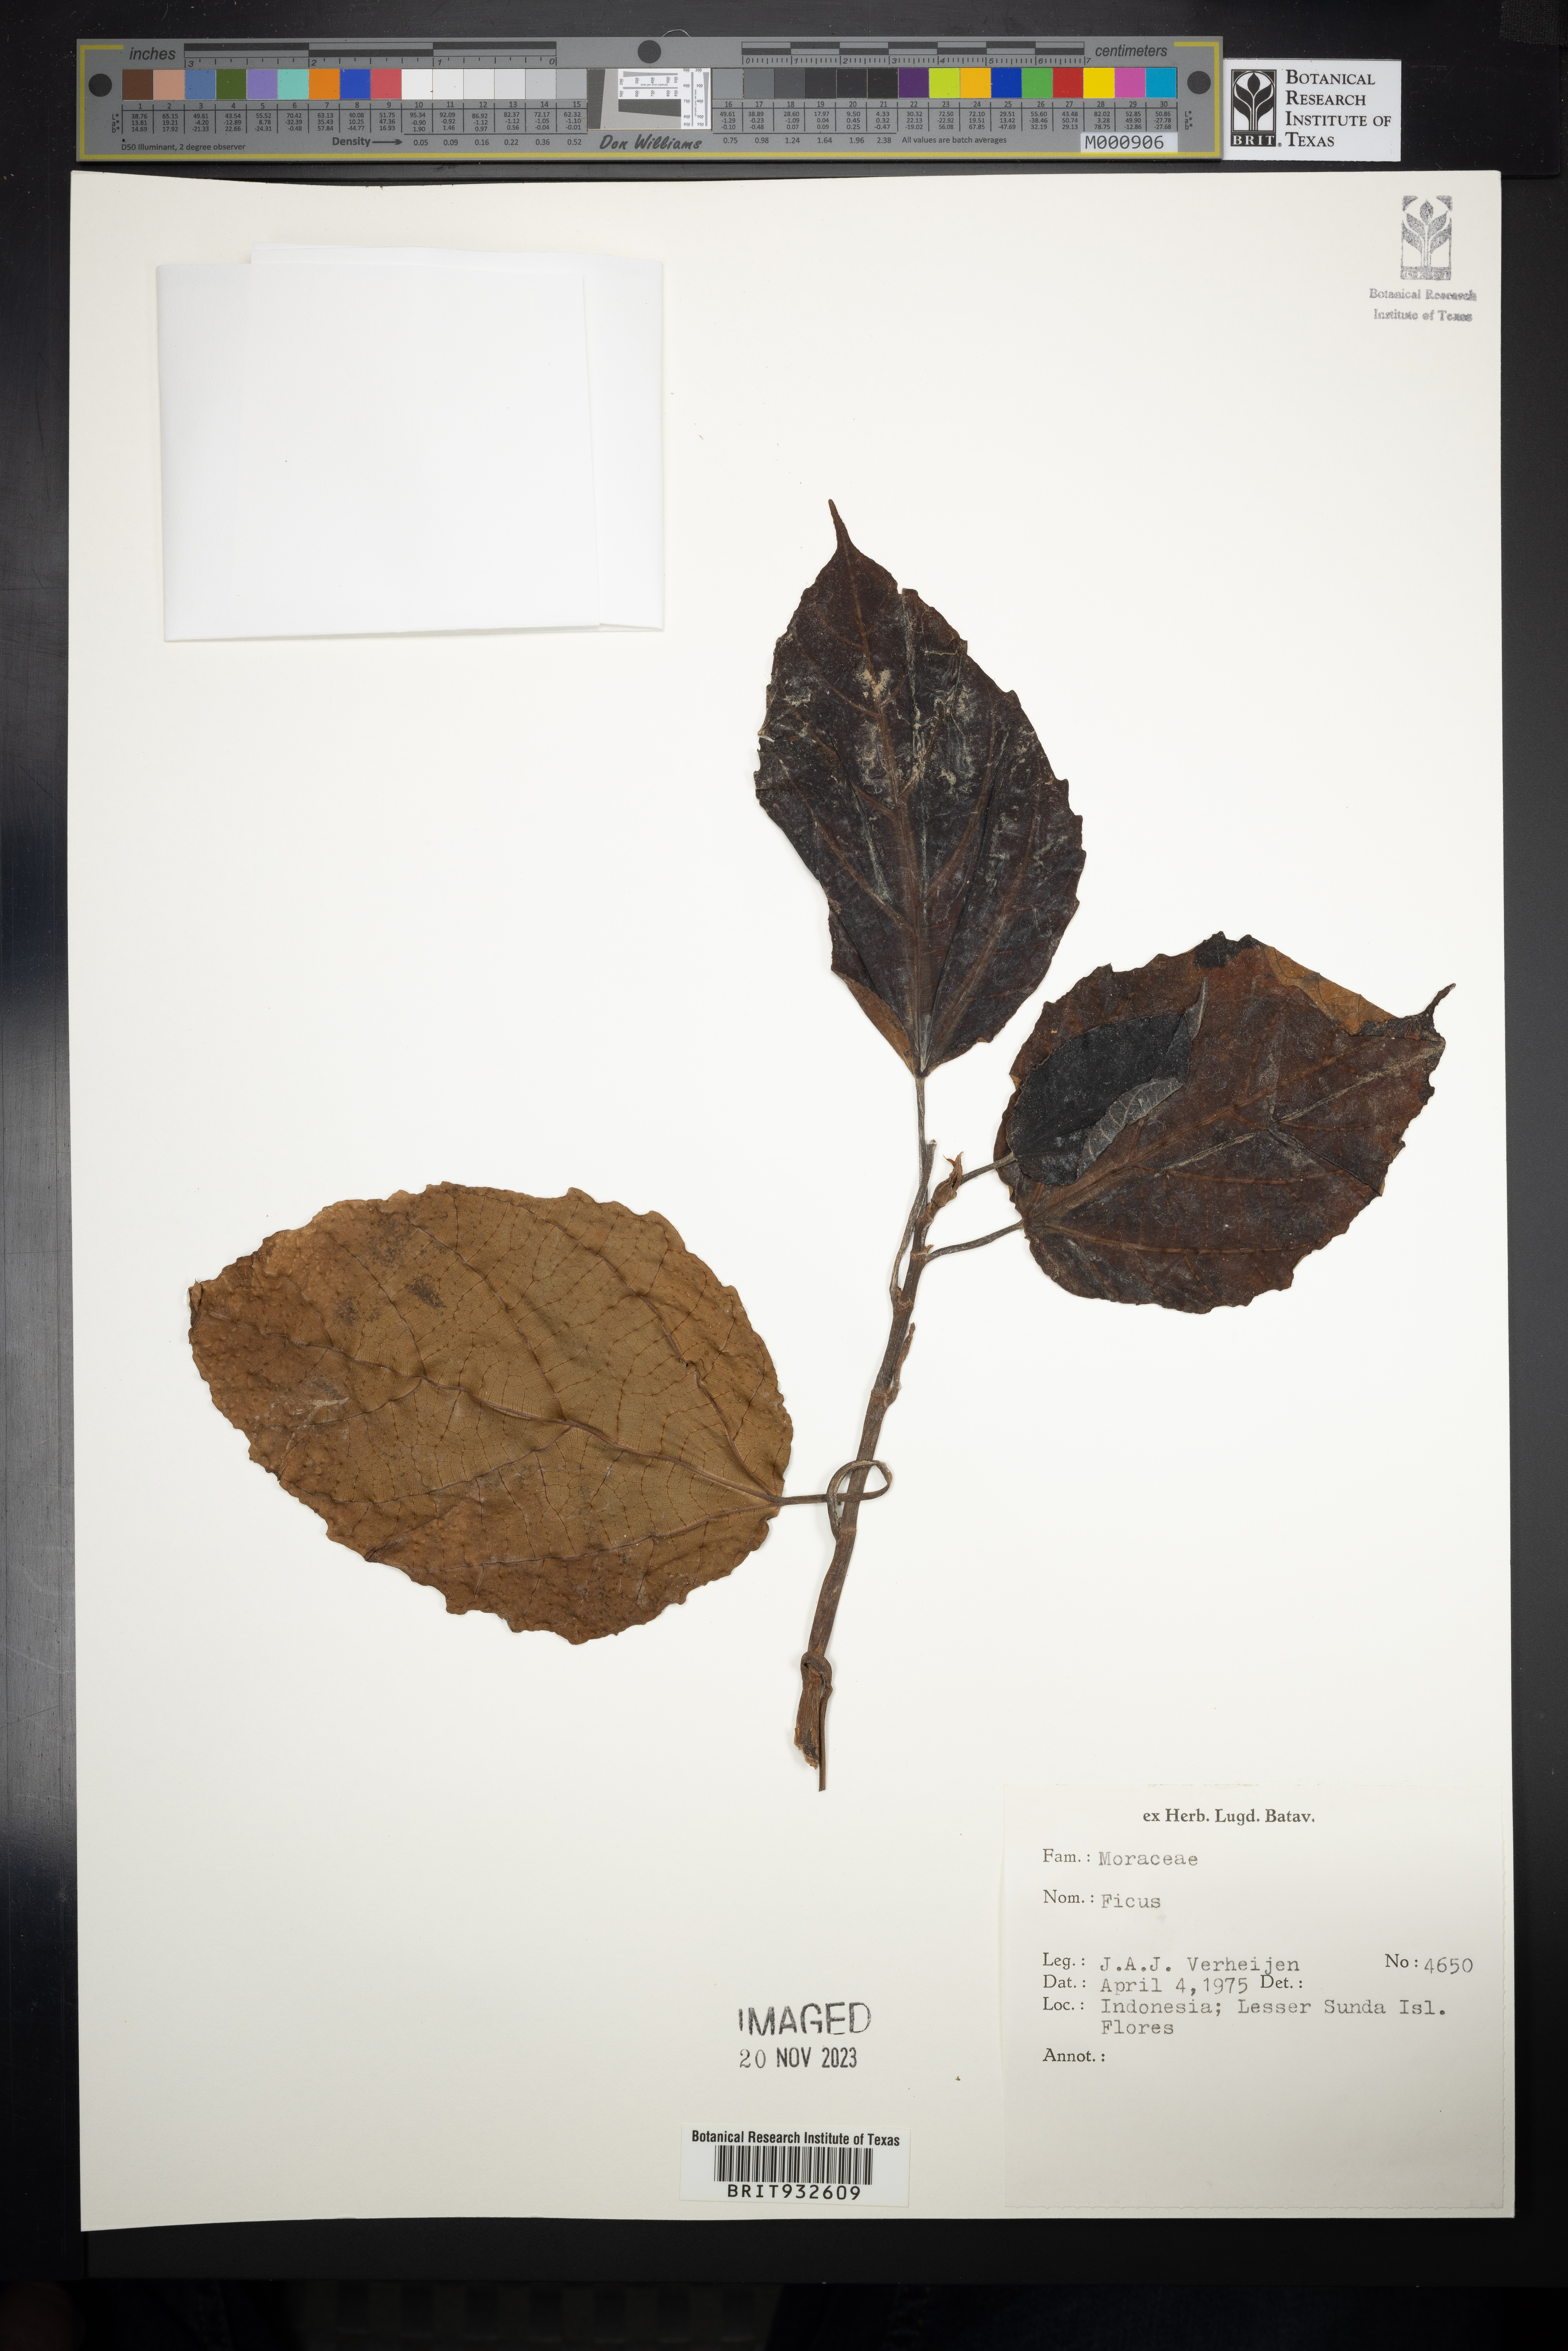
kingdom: Plantae
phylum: Tracheophyta
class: Magnoliopsida
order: Rosales
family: Moraceae
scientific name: Moraceae
